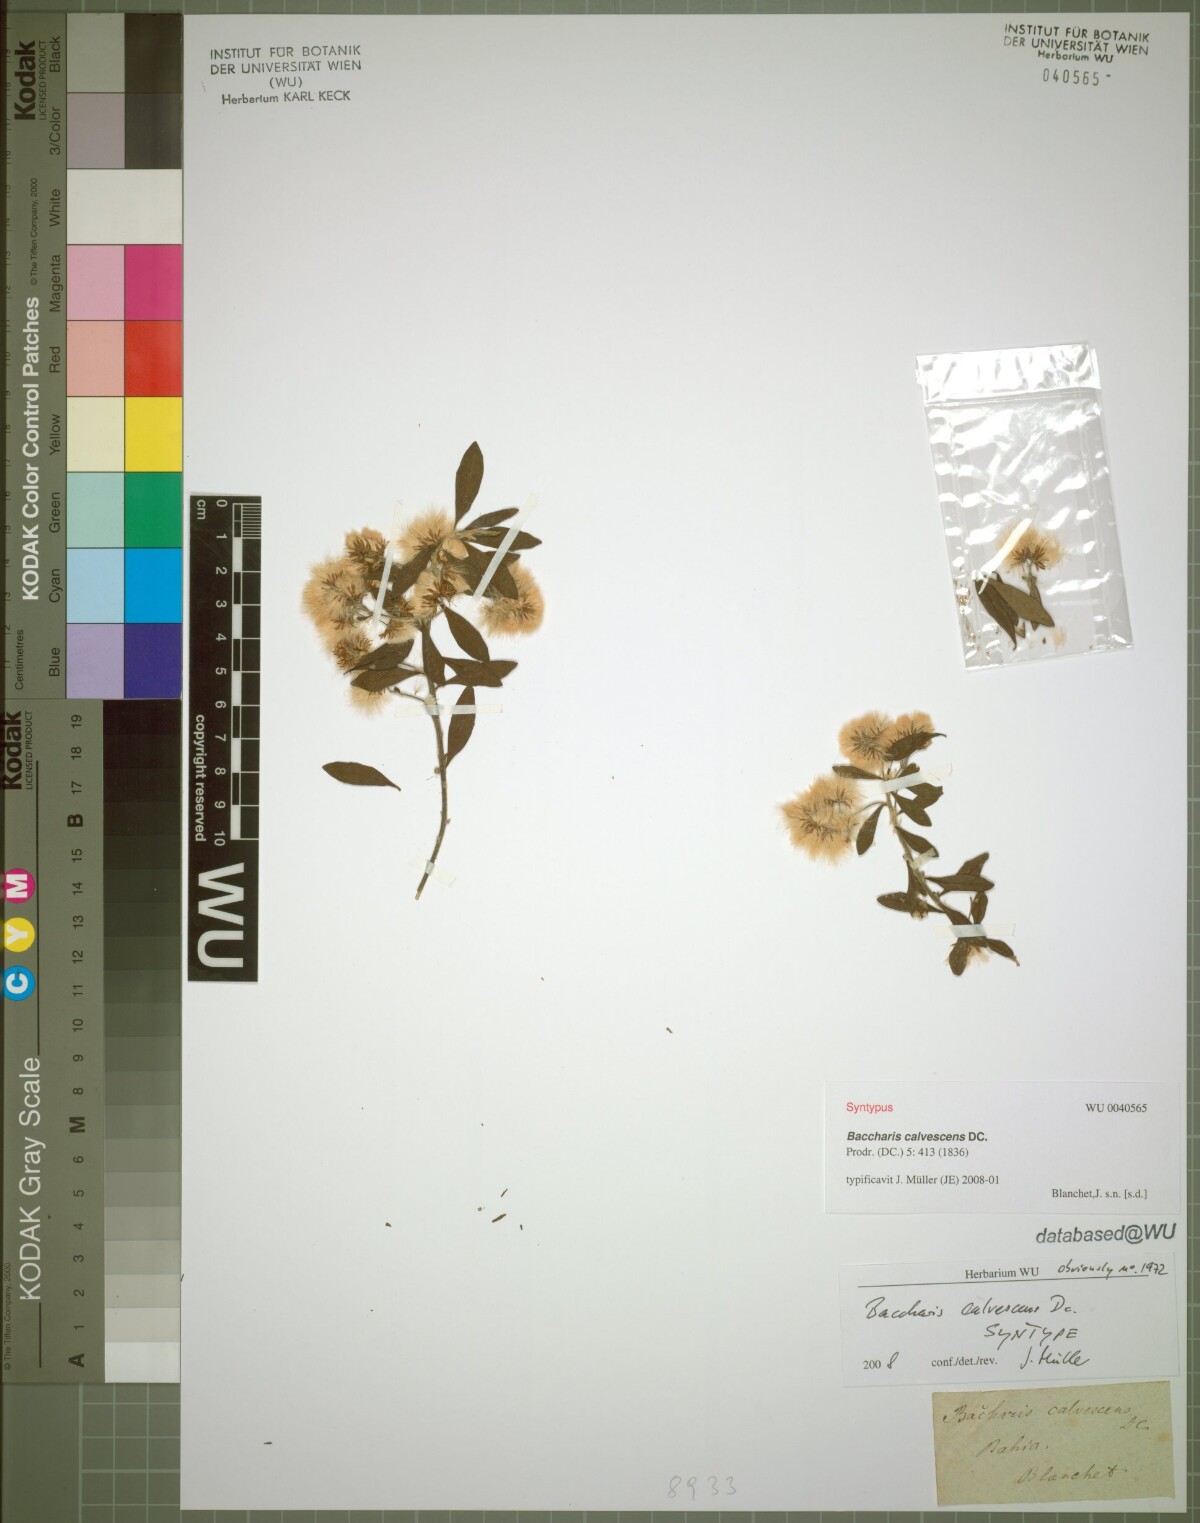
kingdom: Plantae
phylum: Tracheophyta
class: Magnoliopsida
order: Asterales
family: Asteraceae
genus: Baccharis
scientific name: Baccharis calvescens
